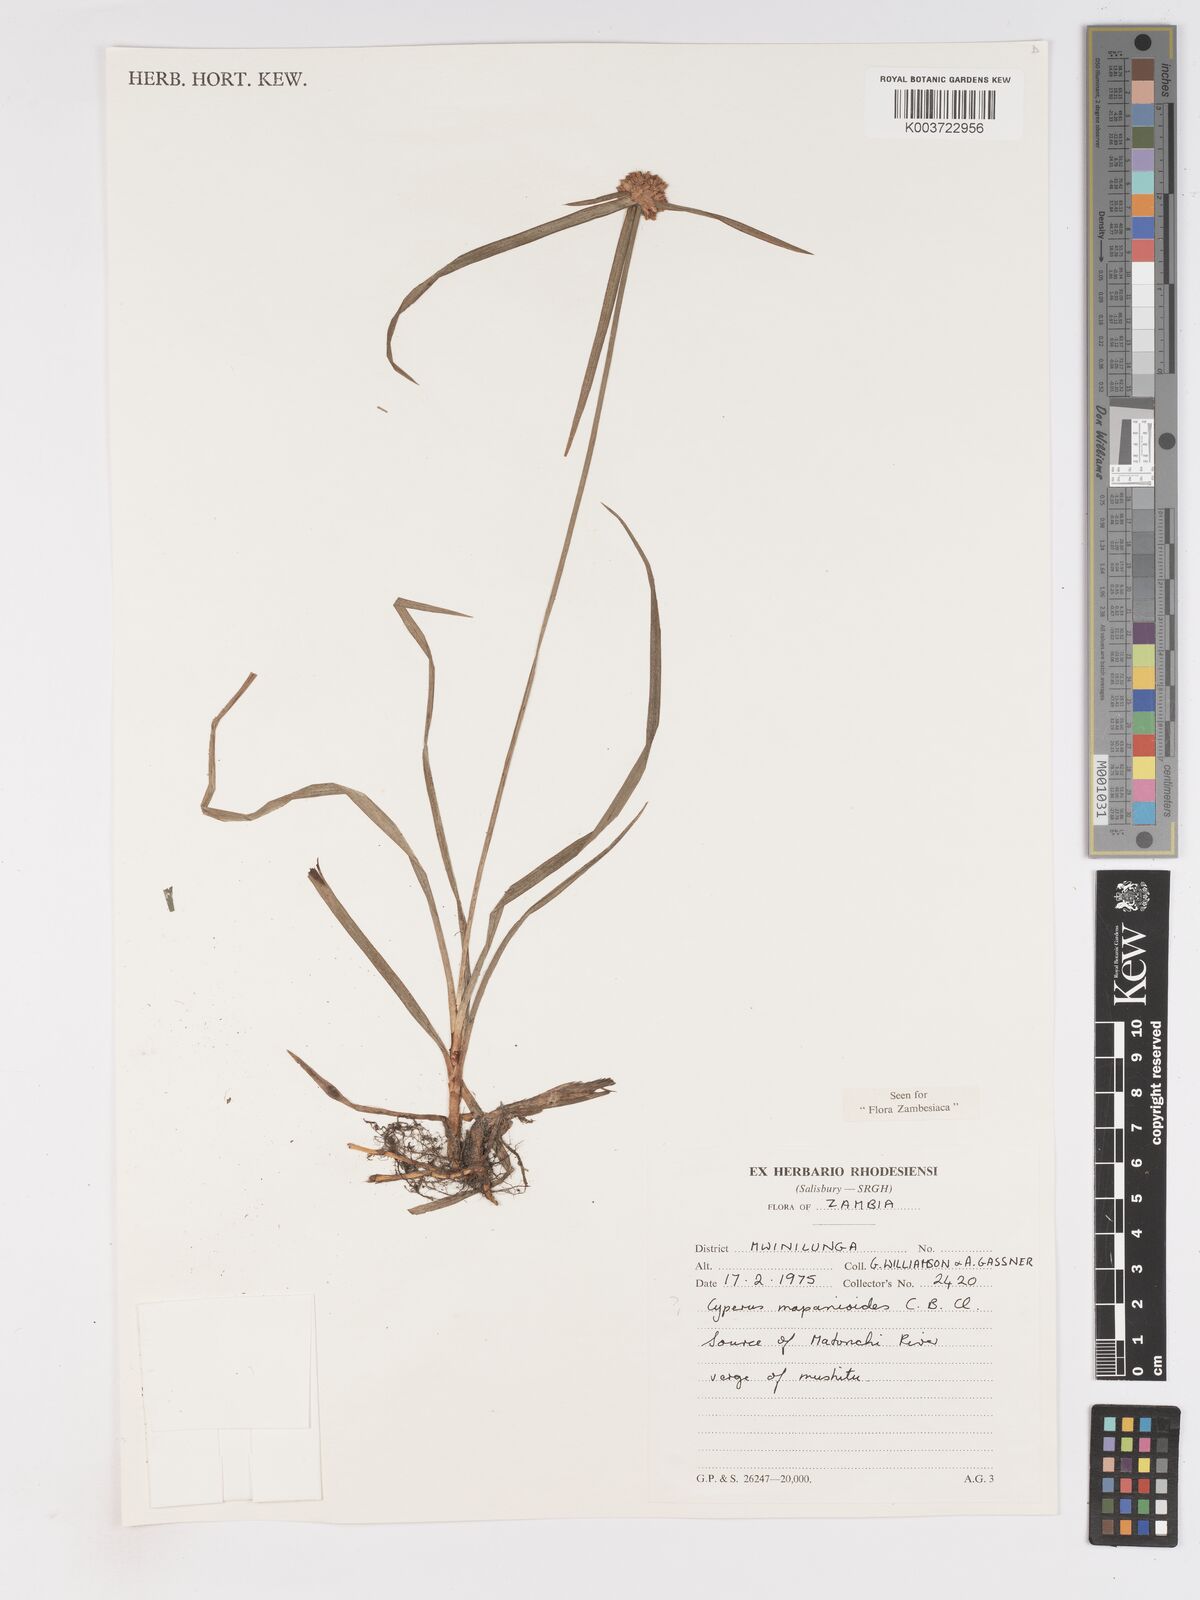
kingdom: Plantae
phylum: Tracheophyta
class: Liliopsida
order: Poales
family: Cyperaceae
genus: Cyperus
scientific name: Cyperus mapanioides
